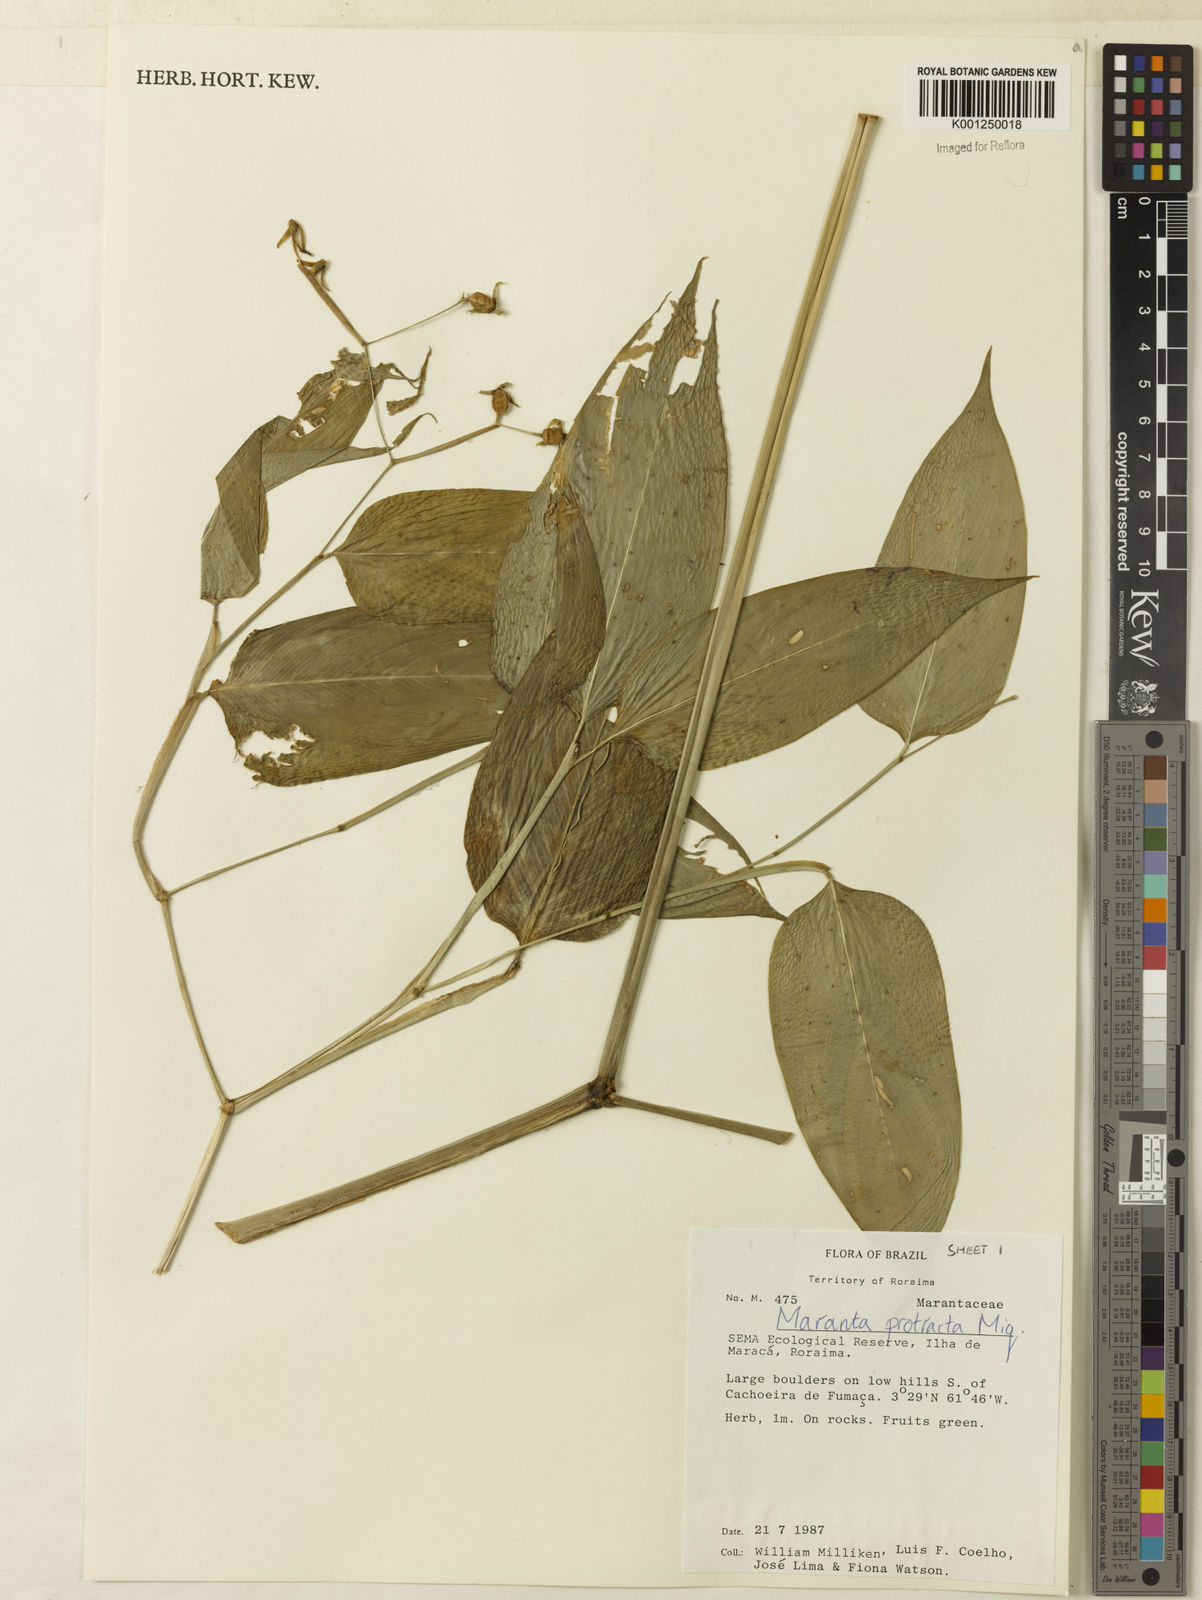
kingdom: Plantae
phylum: Tracheophyta
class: Liliopsida
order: Zingiberales
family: Marantaceae
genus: Maranta
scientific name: Maranta protracta
